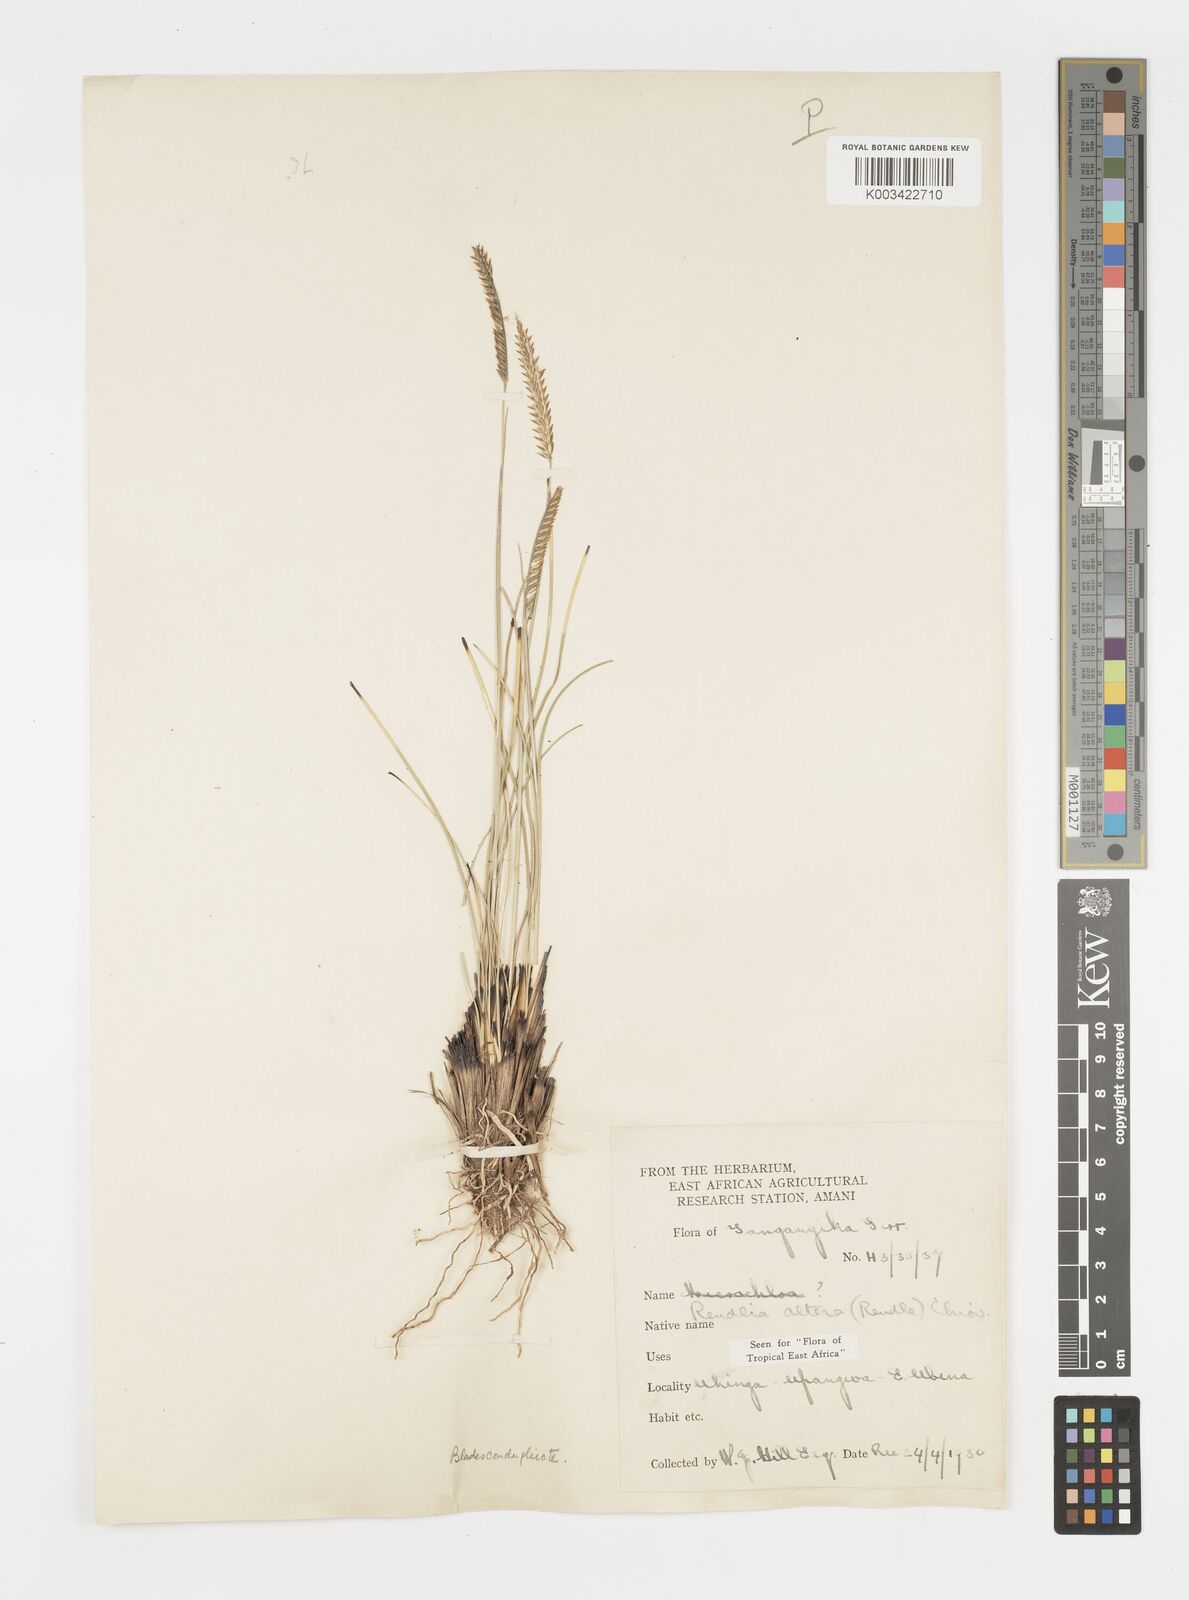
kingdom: Plantae
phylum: Tracheophyta
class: Liliopsida
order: Poales
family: Poaceae
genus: Microchloa
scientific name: Microchloa altera
